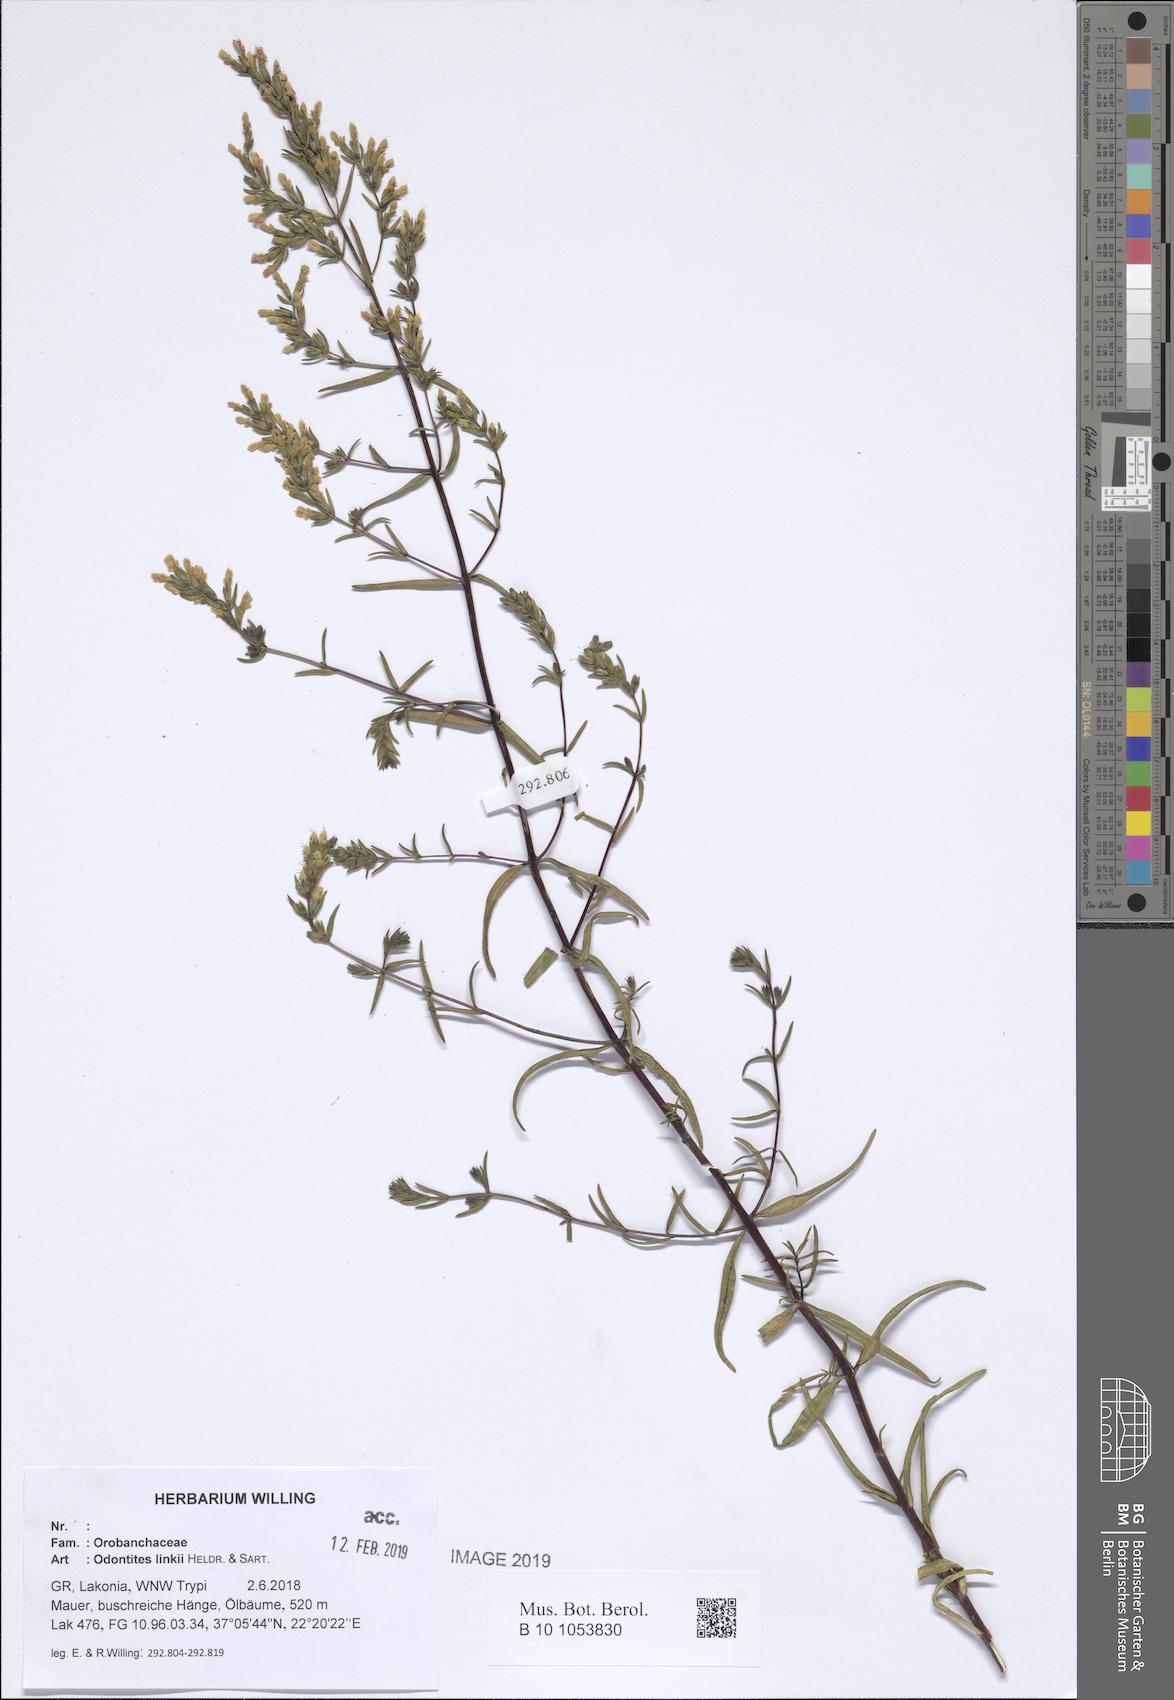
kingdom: Plantae
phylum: Tracheophyta
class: Magnoliopsida
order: Lamiales
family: Scrophulariaceae
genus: Odontites
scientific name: Odontites linkii
